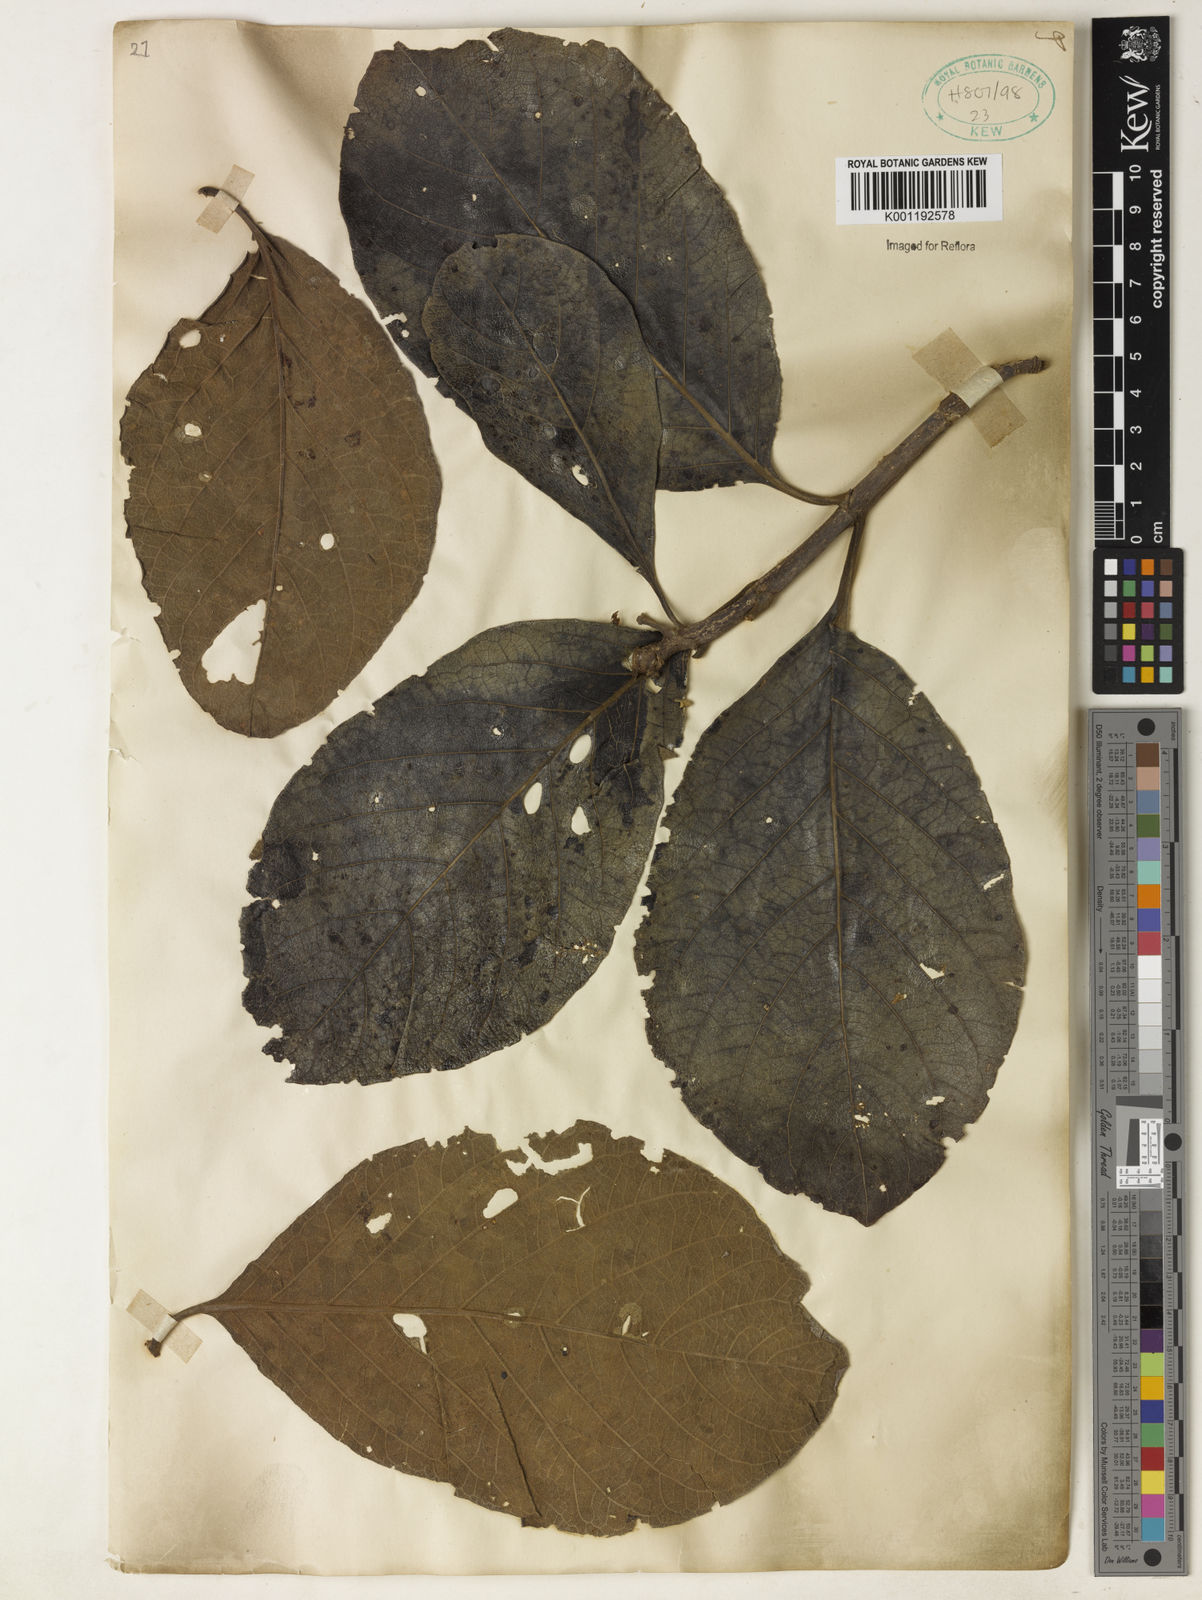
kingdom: Plantae
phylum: Tracheophyta
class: Magnoliopsida
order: Gentianales
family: Rubiaceae
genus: Tocoyena
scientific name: Tocoyena sprucei
